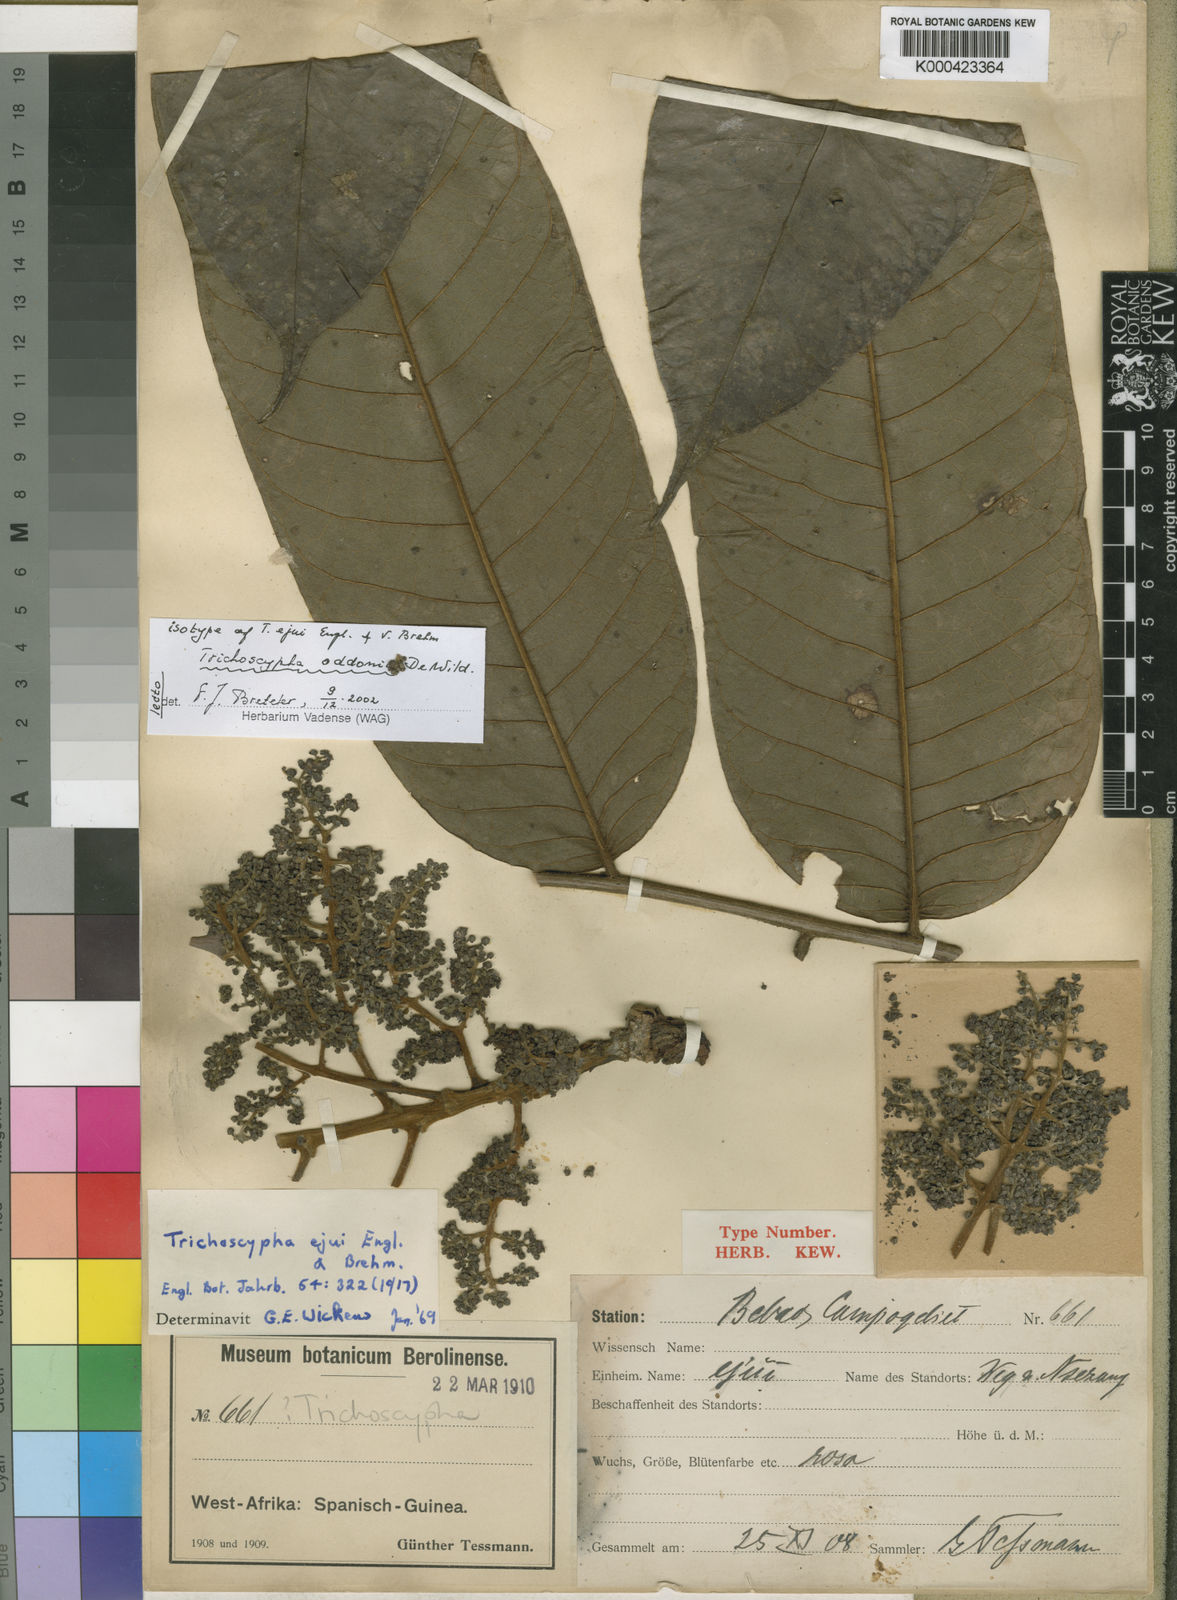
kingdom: Plantae
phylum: Tracheophyta
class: Magnoliopsida
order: Sapindales
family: Anacardiaceae
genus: Trichoscypha
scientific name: Trichoscypha oddonii
